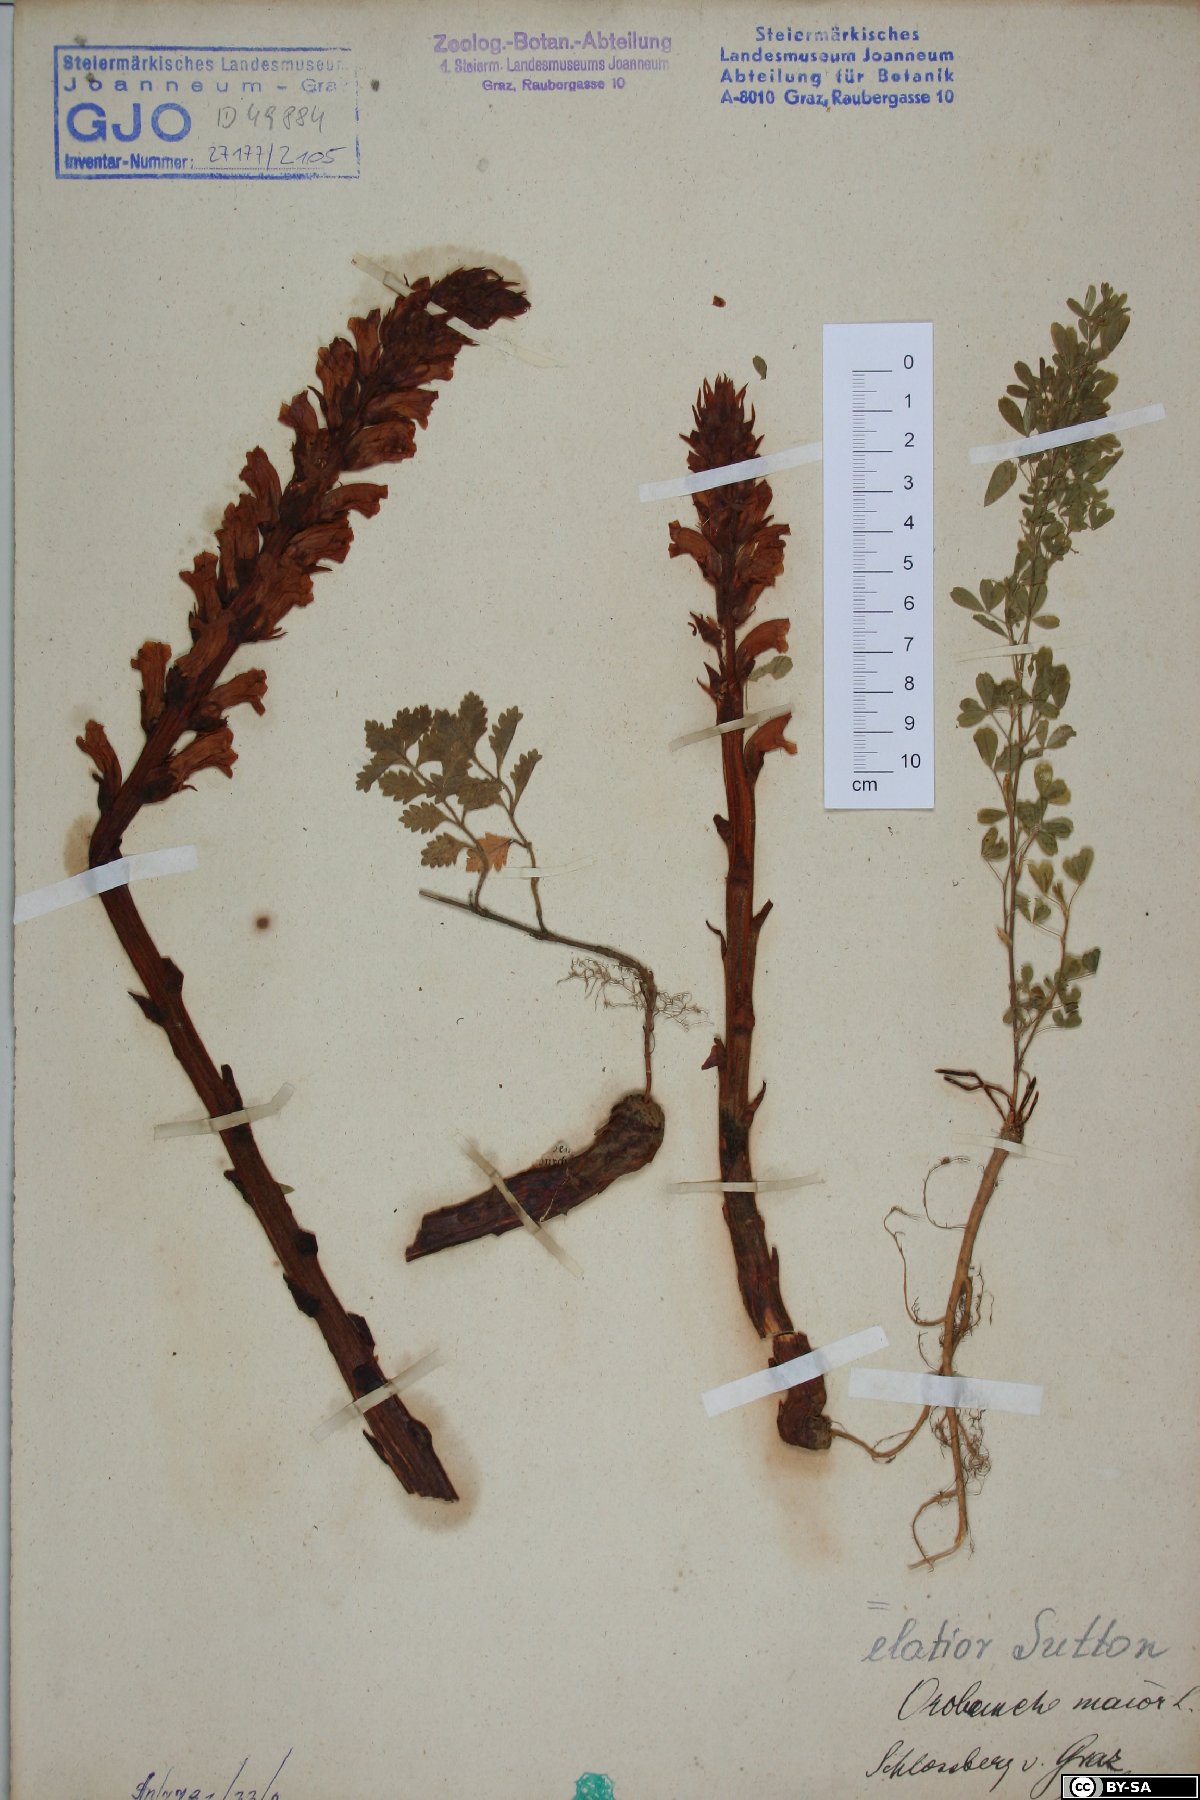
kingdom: Plantae
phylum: Tracheophyta
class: Magnoliopsida
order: Lamiales
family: Orobanchaceae
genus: Orobanche
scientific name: Orobanche centaurina
